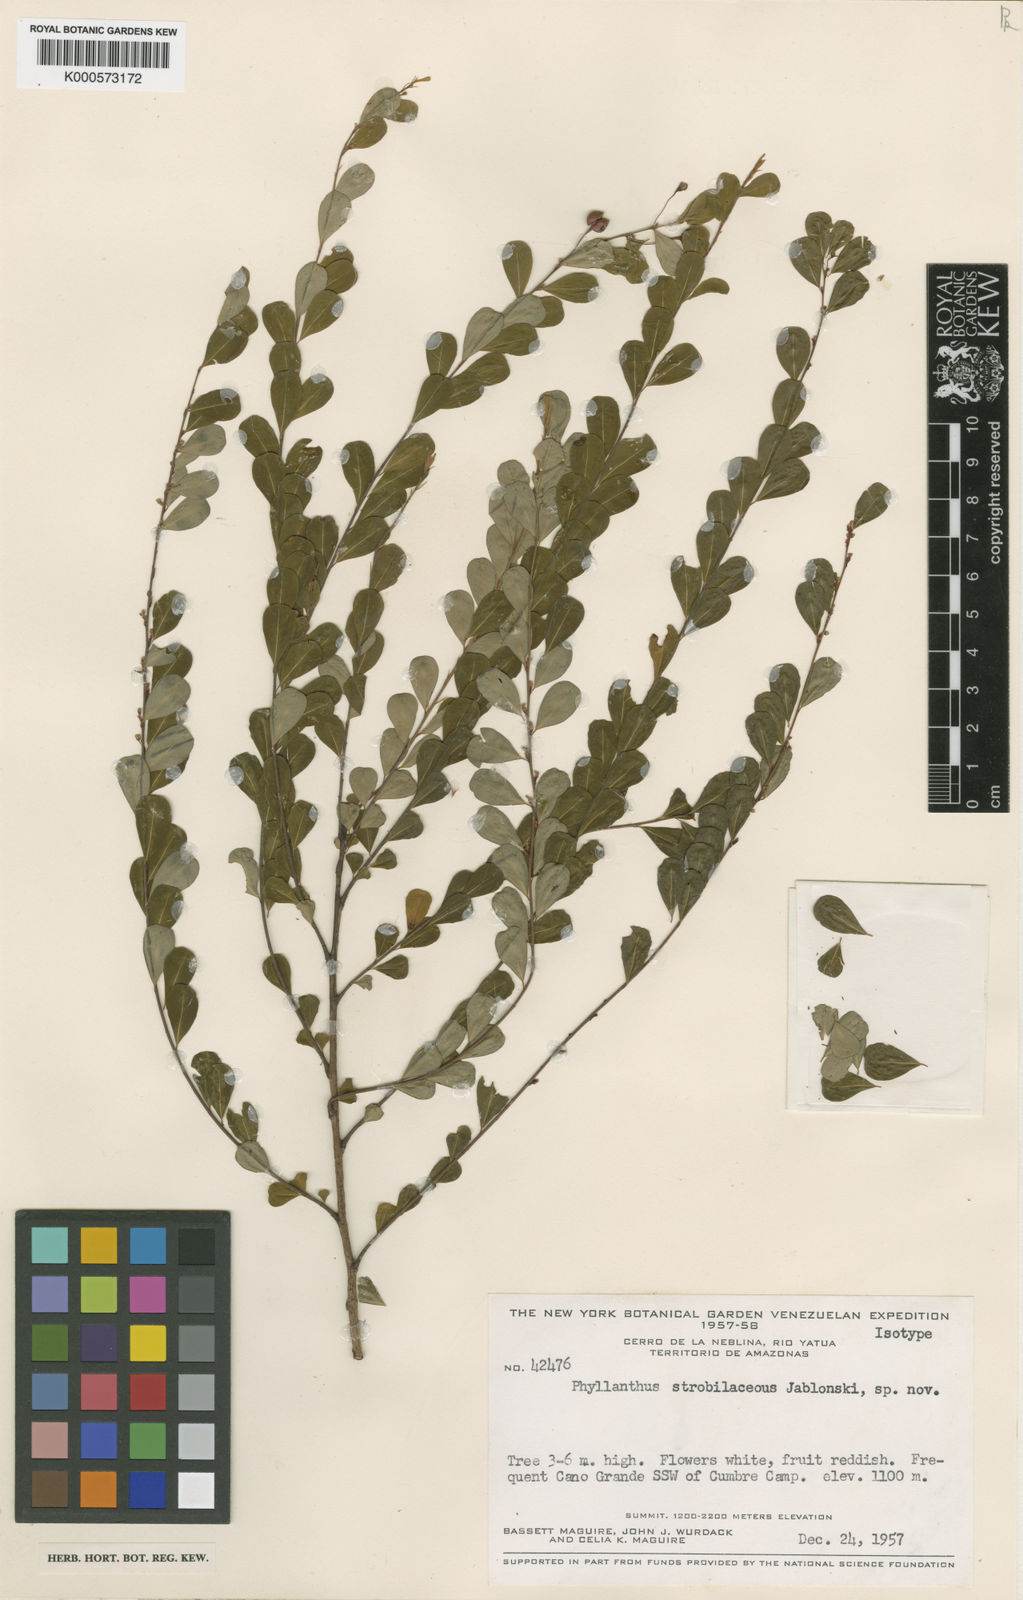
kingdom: Plantae
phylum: Tracheophyta
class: Magnoliopsida
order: Malpighiales
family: Phyllanthaceae
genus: Phyllanthus
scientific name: Phyllanthus strobilaceus
